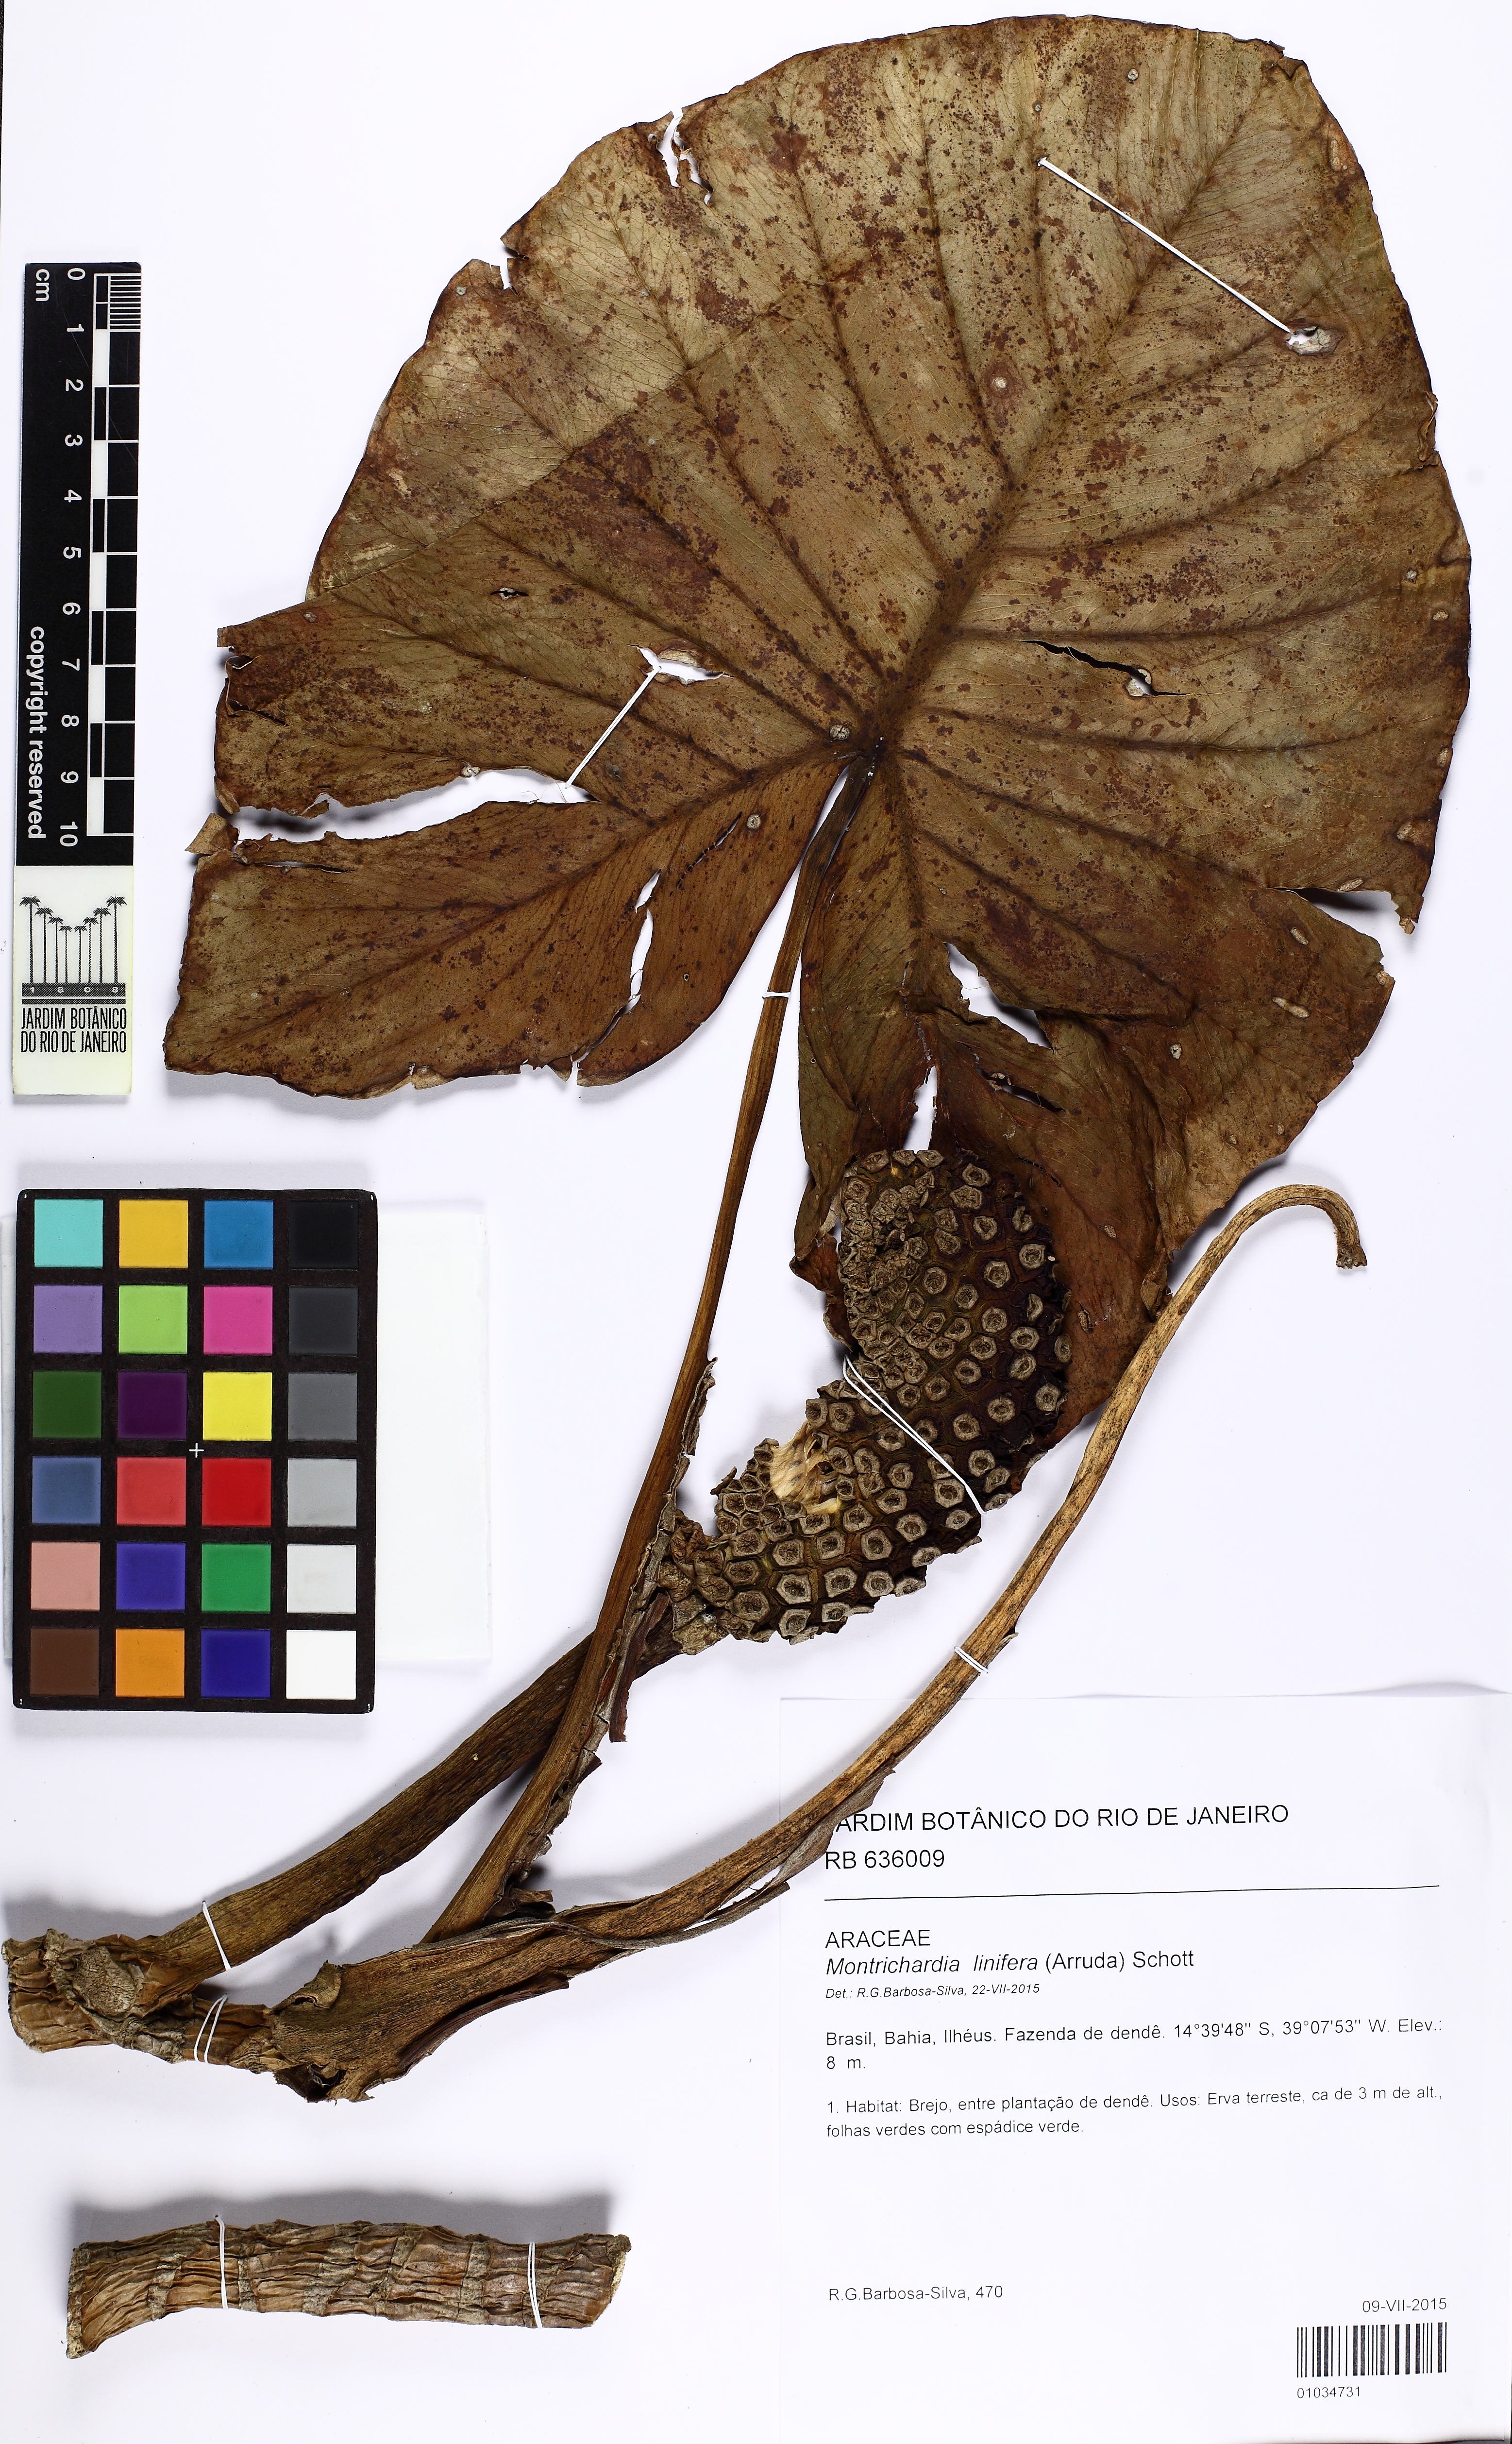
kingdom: Plantae
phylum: Tracheophyta
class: Liliopsida
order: Alismatales
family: Araceae
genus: Montrichardia
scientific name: Montrichardia linifera
